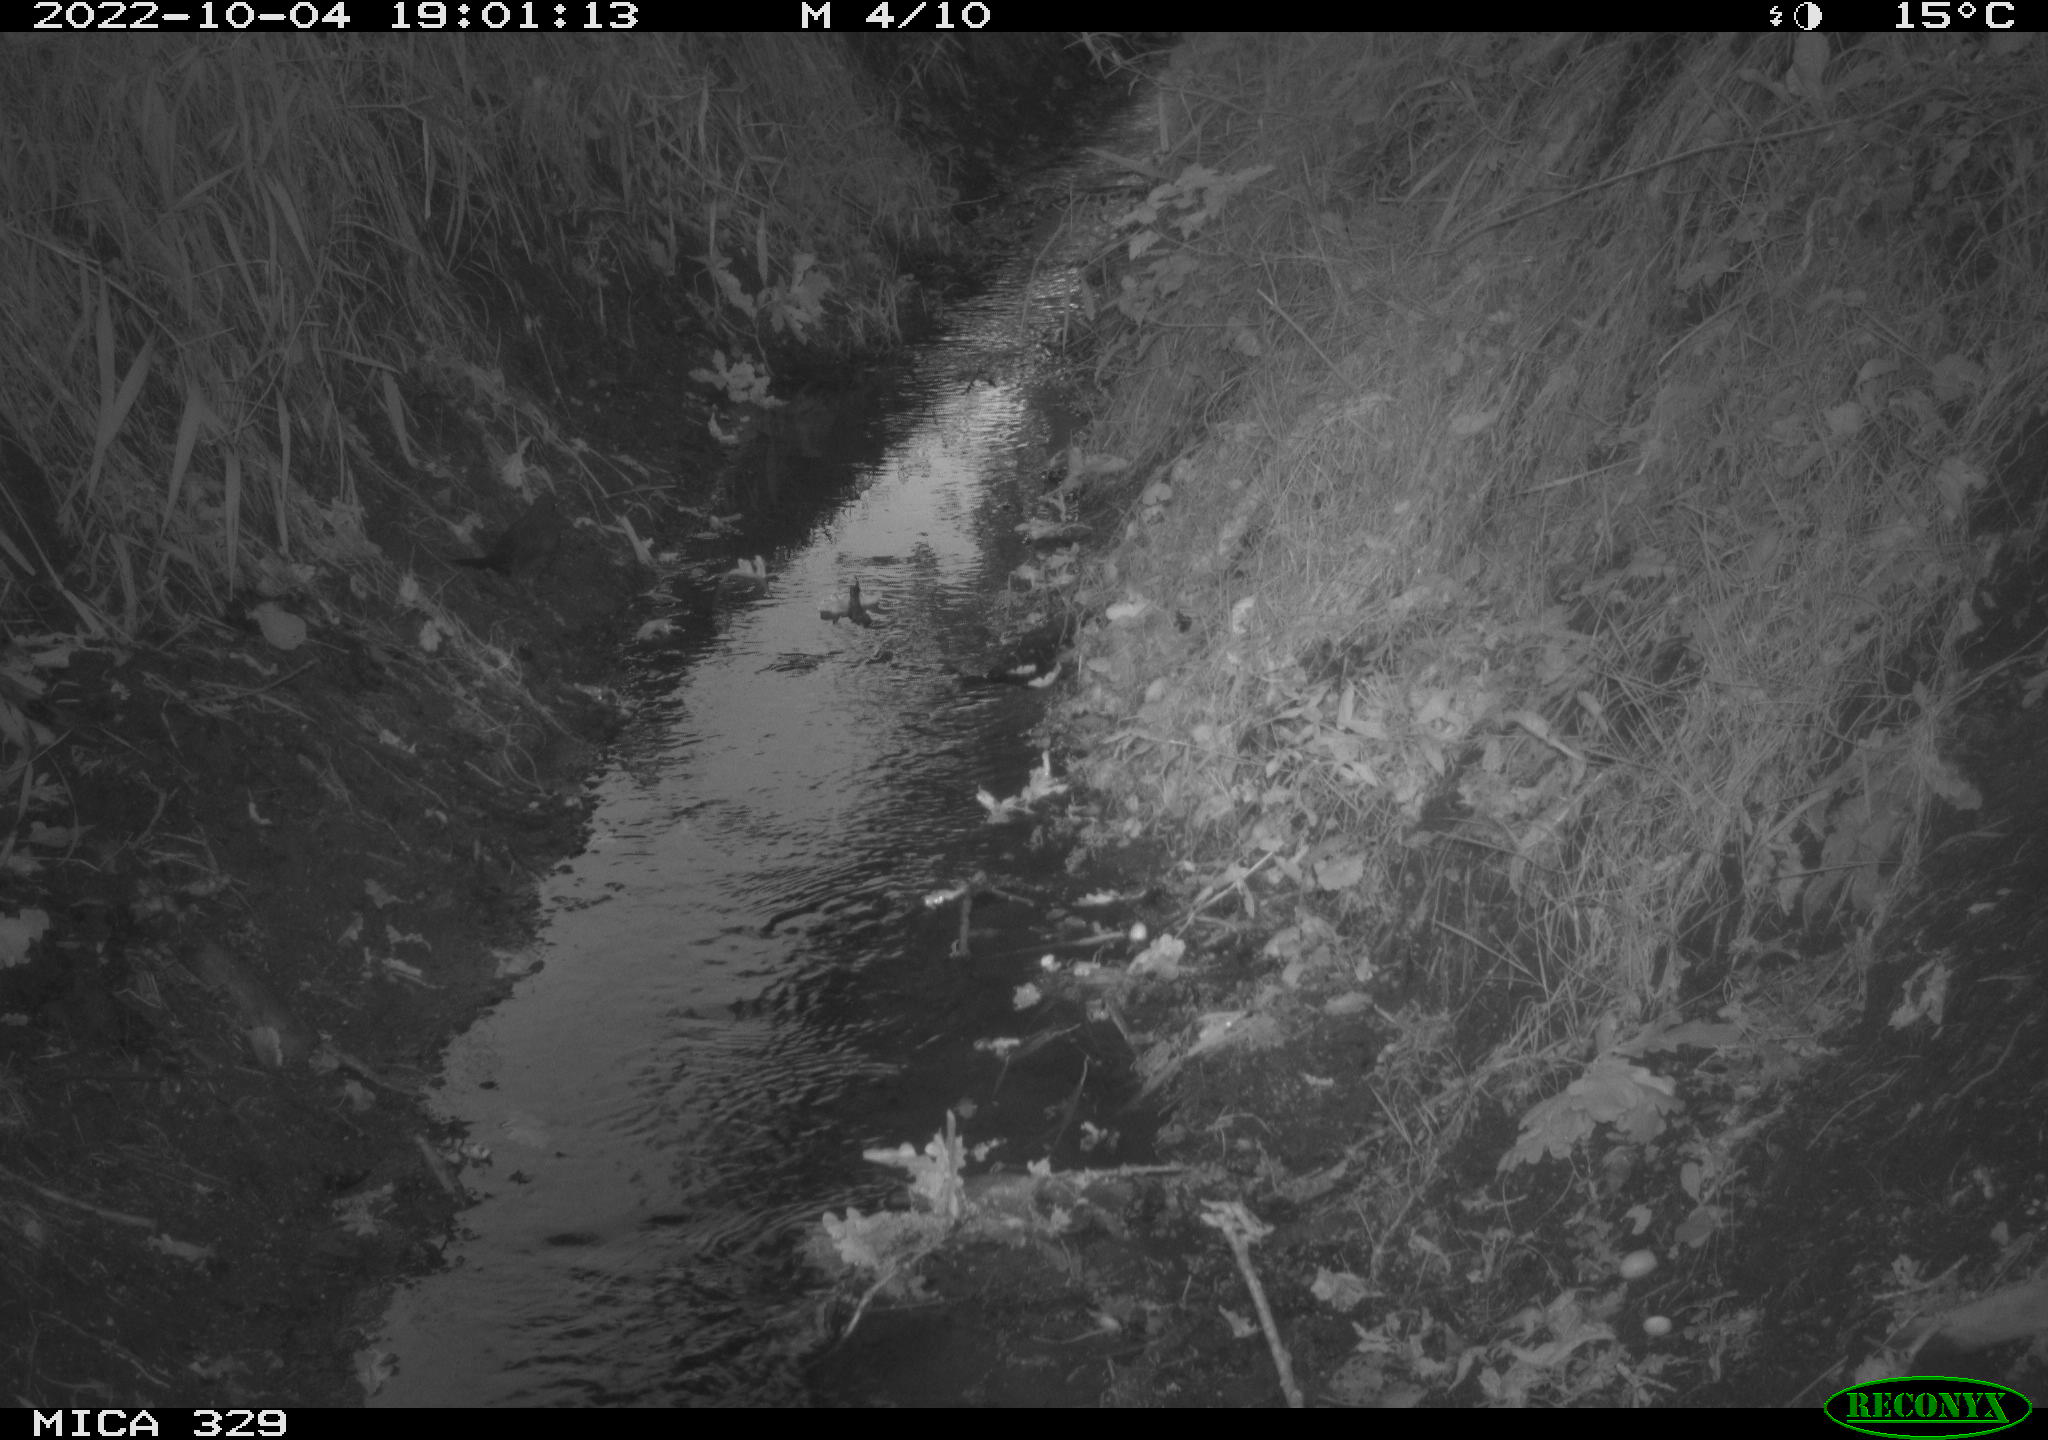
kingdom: Animalia
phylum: Chordata
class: Aves
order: Passeriformes
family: Turdidae
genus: Turdus
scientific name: Turdus merula
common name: Common blackbird
